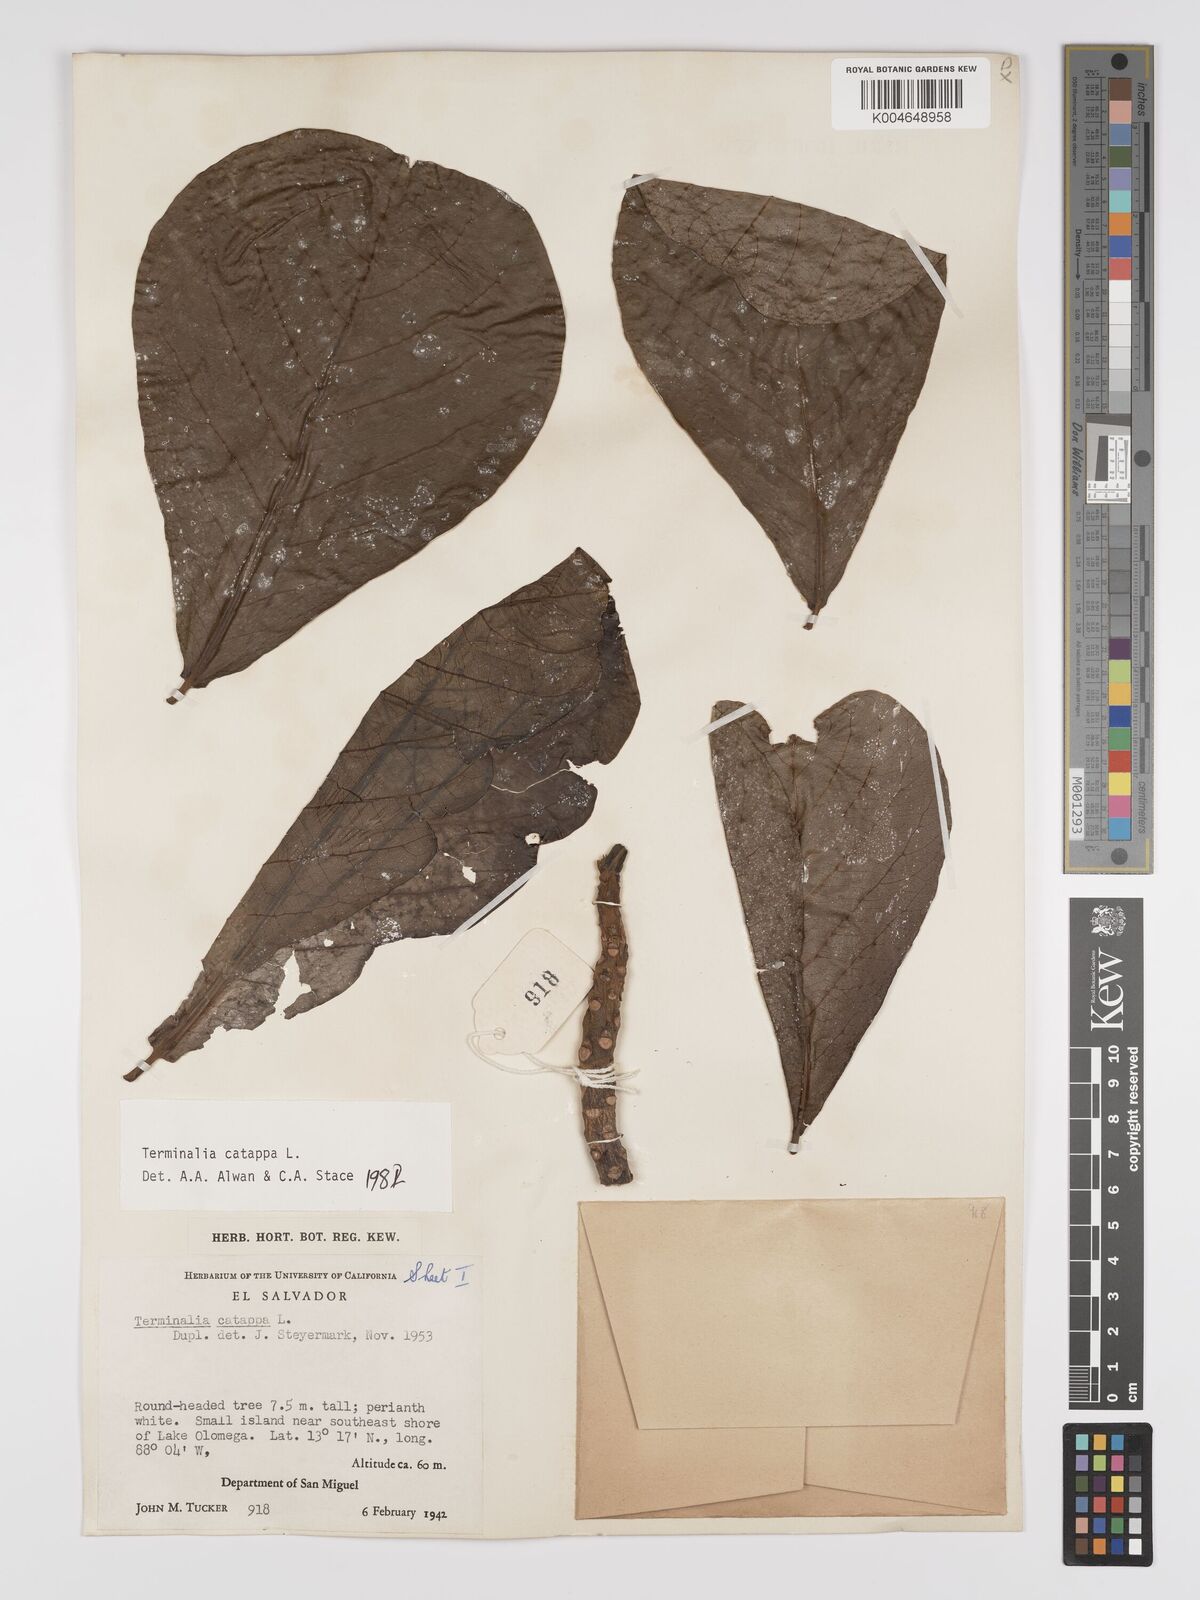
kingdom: Plantae
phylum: Tracheophyta
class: Magnoliopsida
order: Myrtales
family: Combretaceae
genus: Terminalia
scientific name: Terminalia catappa
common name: Tropical almond
